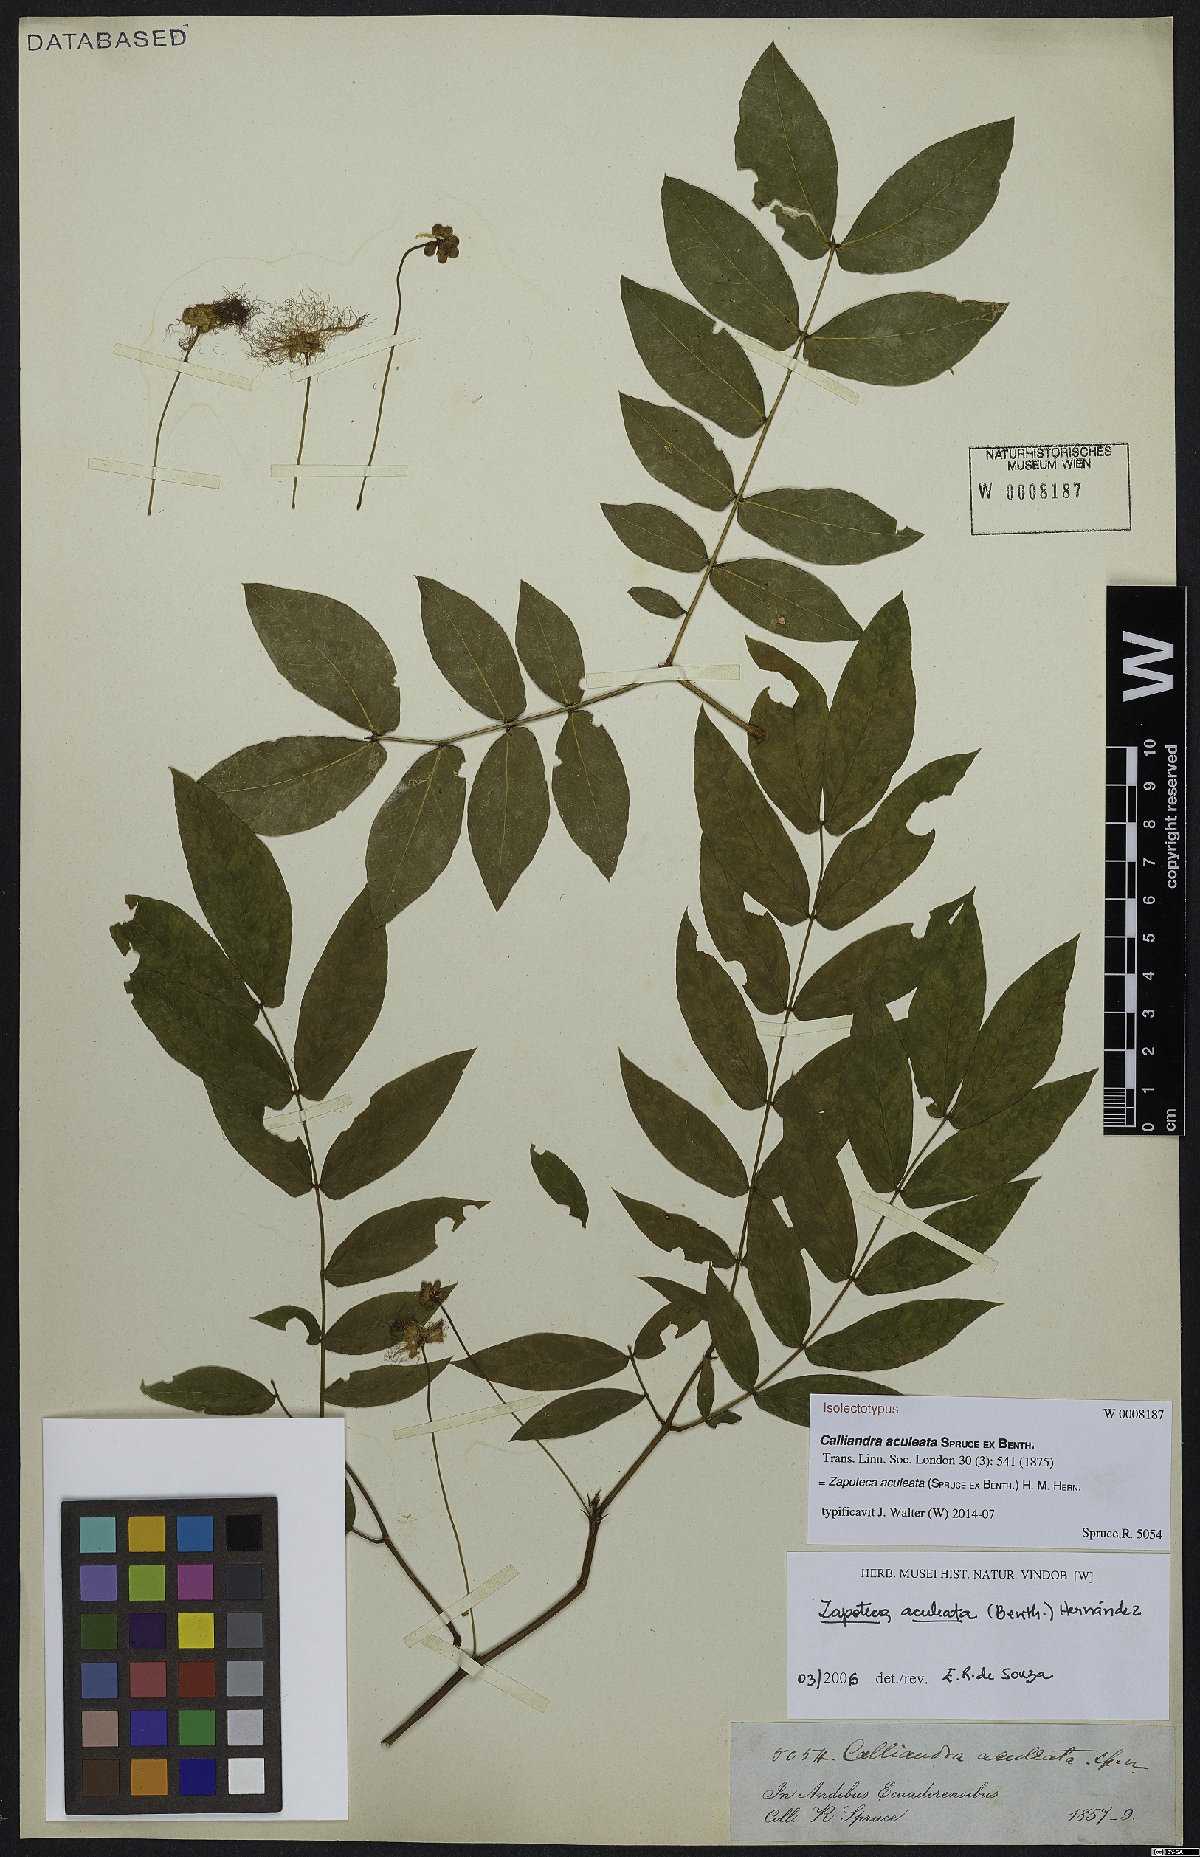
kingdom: Plantae
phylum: Tracheophyta
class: Magnoliopsida
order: Fabales
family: Fabaceae
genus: Zapoteca
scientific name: Zapoteca aculeata
